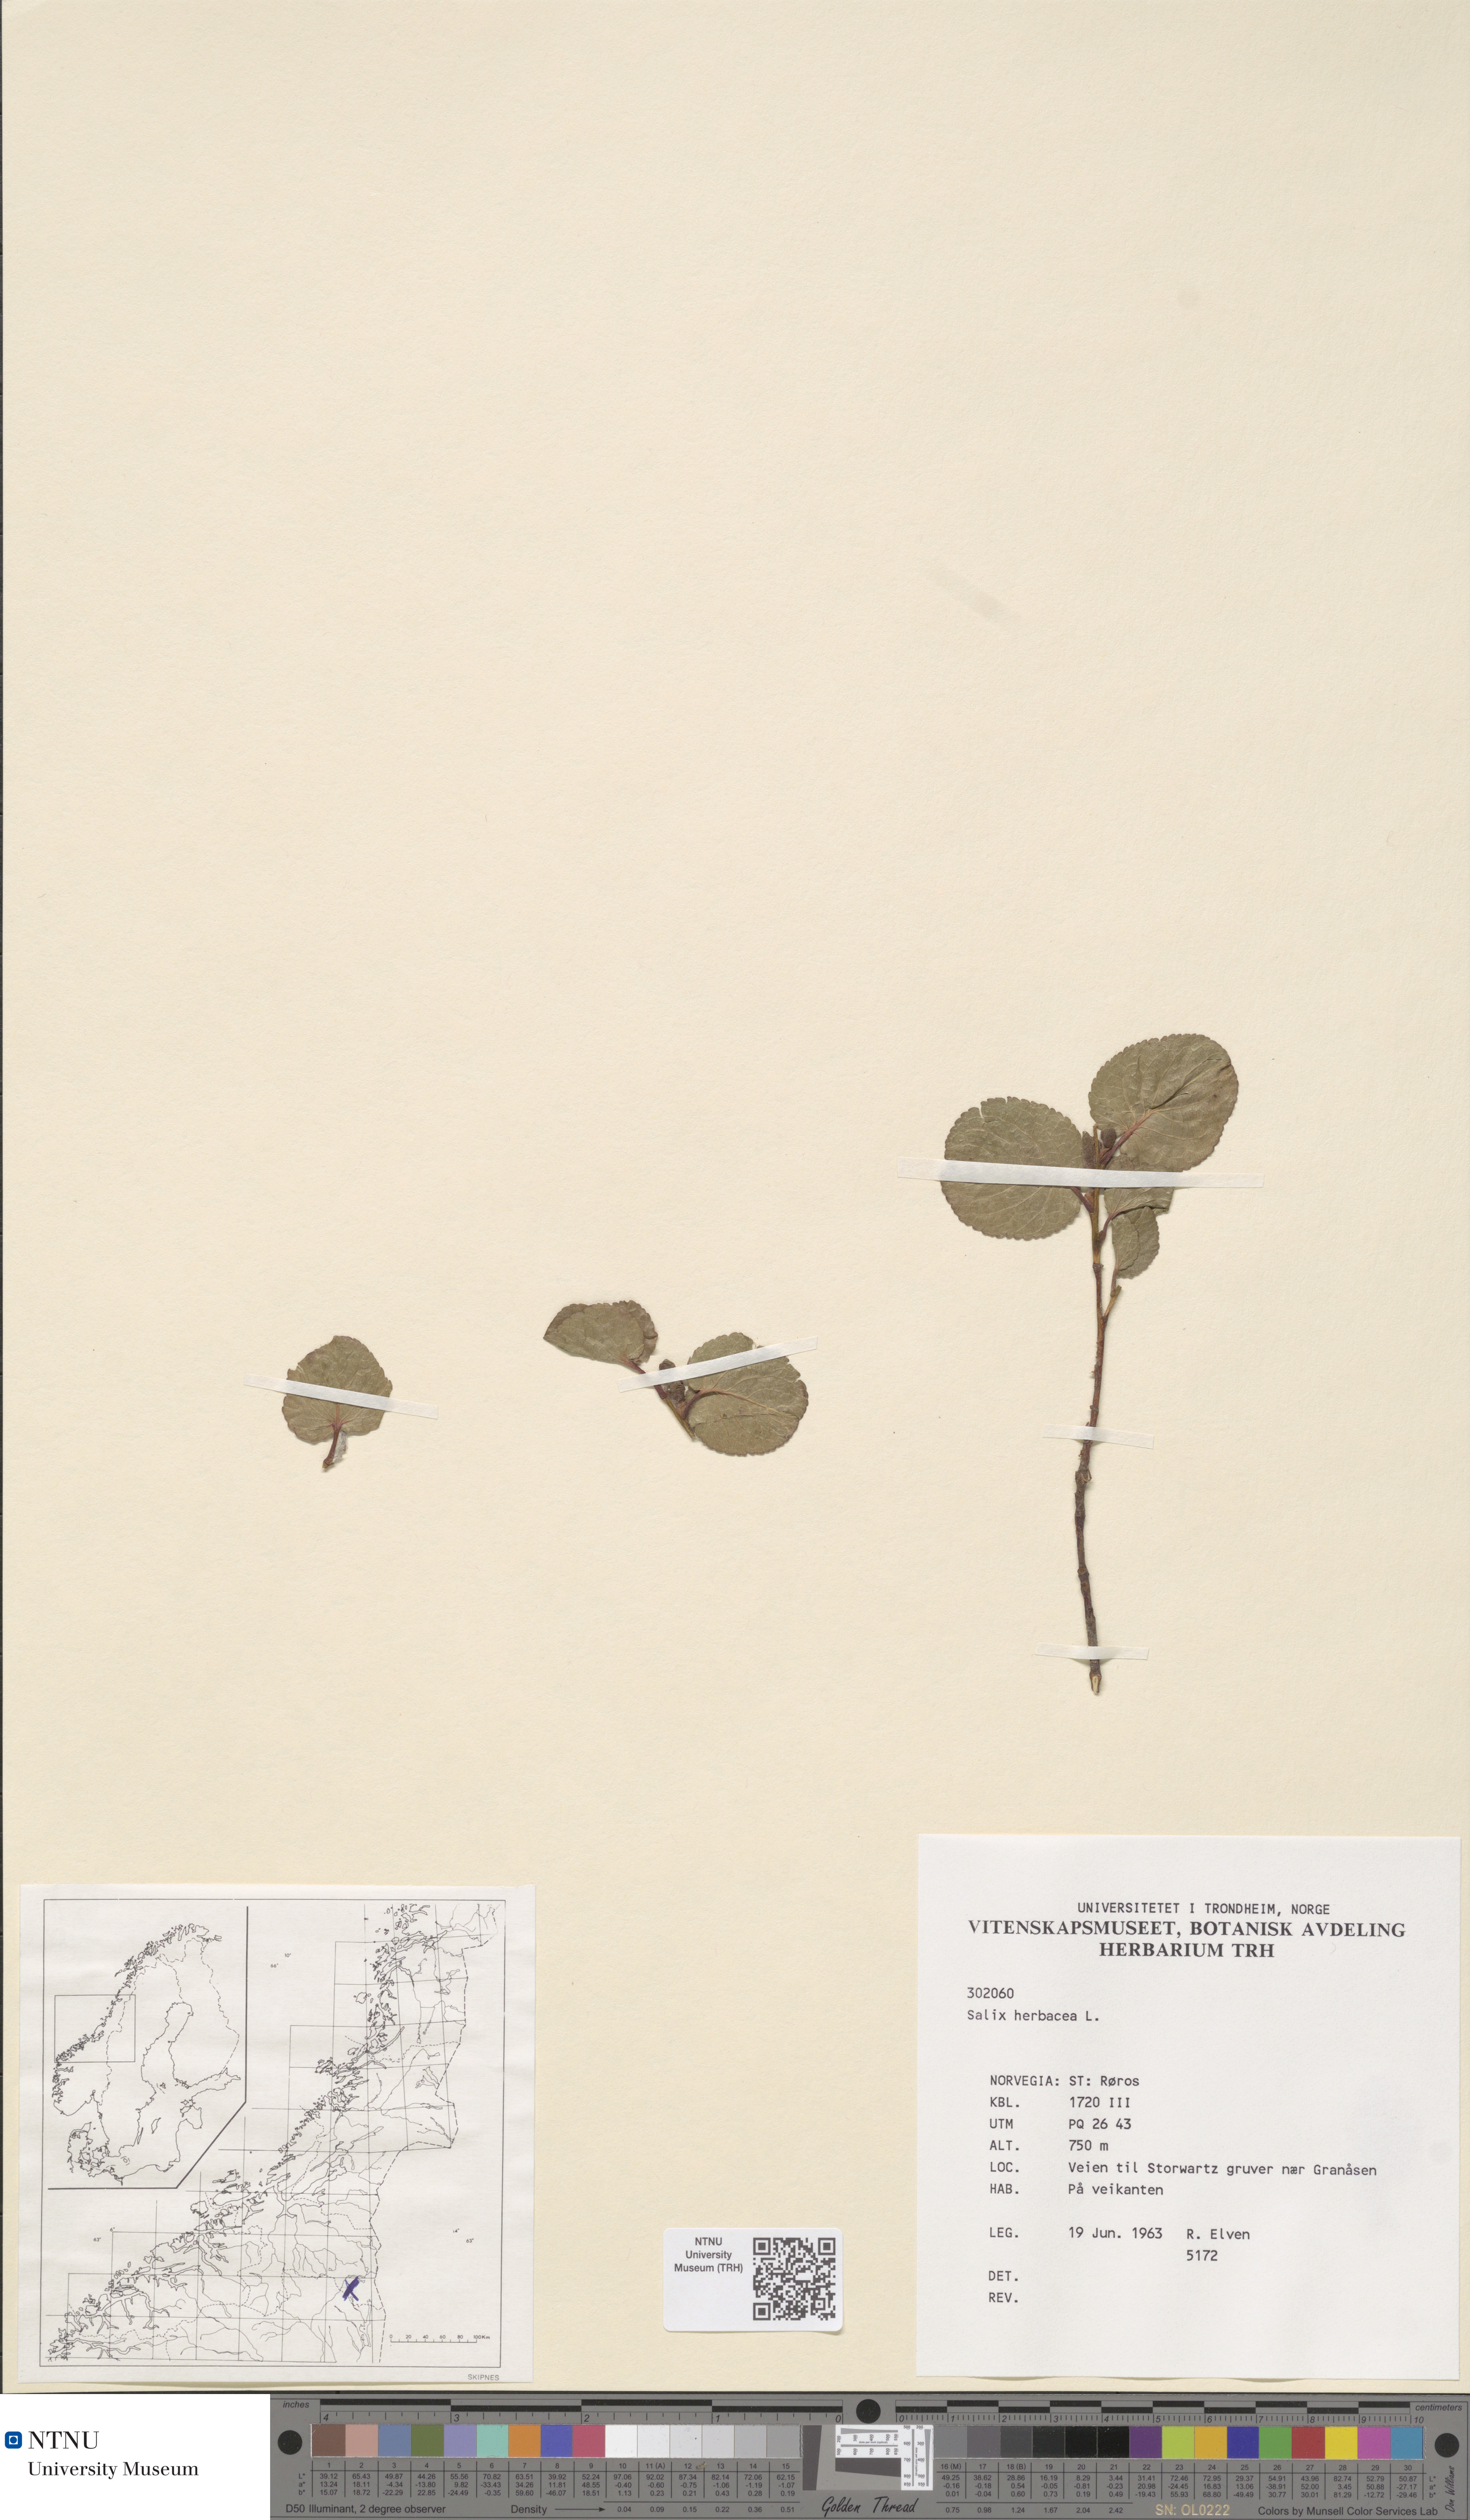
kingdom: Plantae
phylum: Tracheophyta
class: Magnoliopsida
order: Malpighiales
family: Salicaceae
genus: Salix
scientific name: Salix herbacea
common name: Dwarf willow
